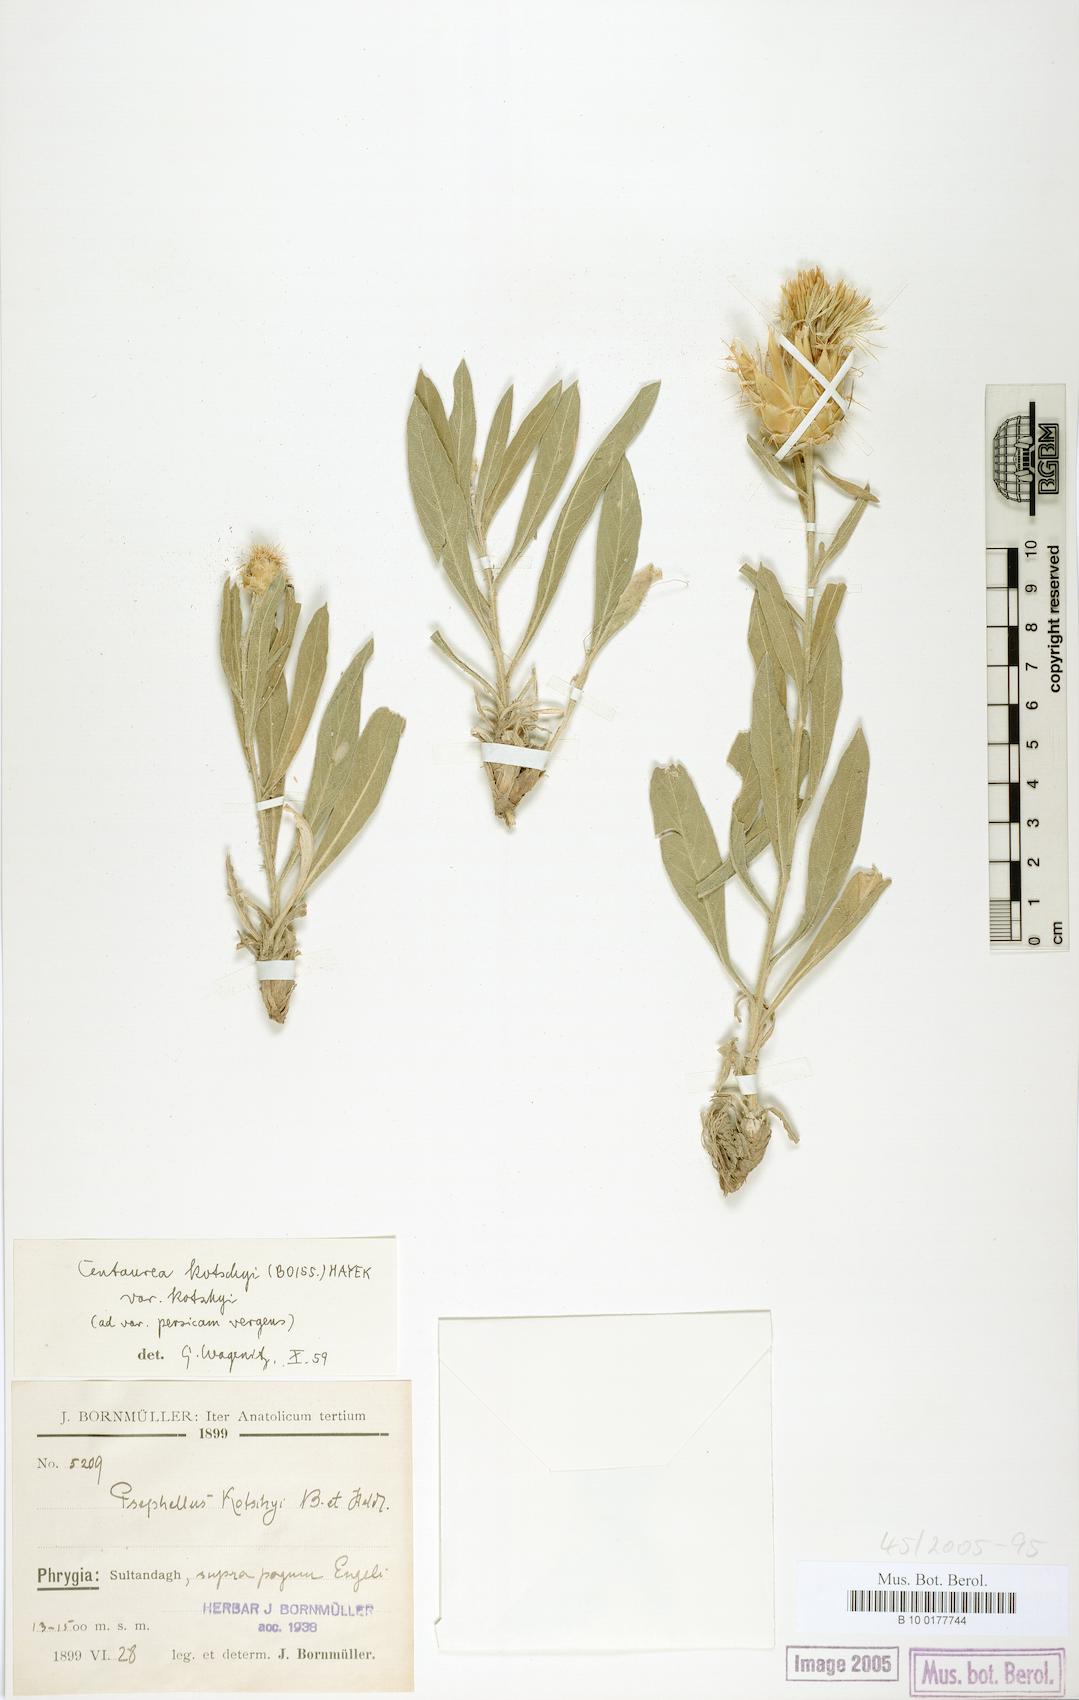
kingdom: Plantae
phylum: Tracheophyta
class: Magnoliopsida
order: Asterales
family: Asteraceae
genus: Centaurea
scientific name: Centaurea kotschyi
